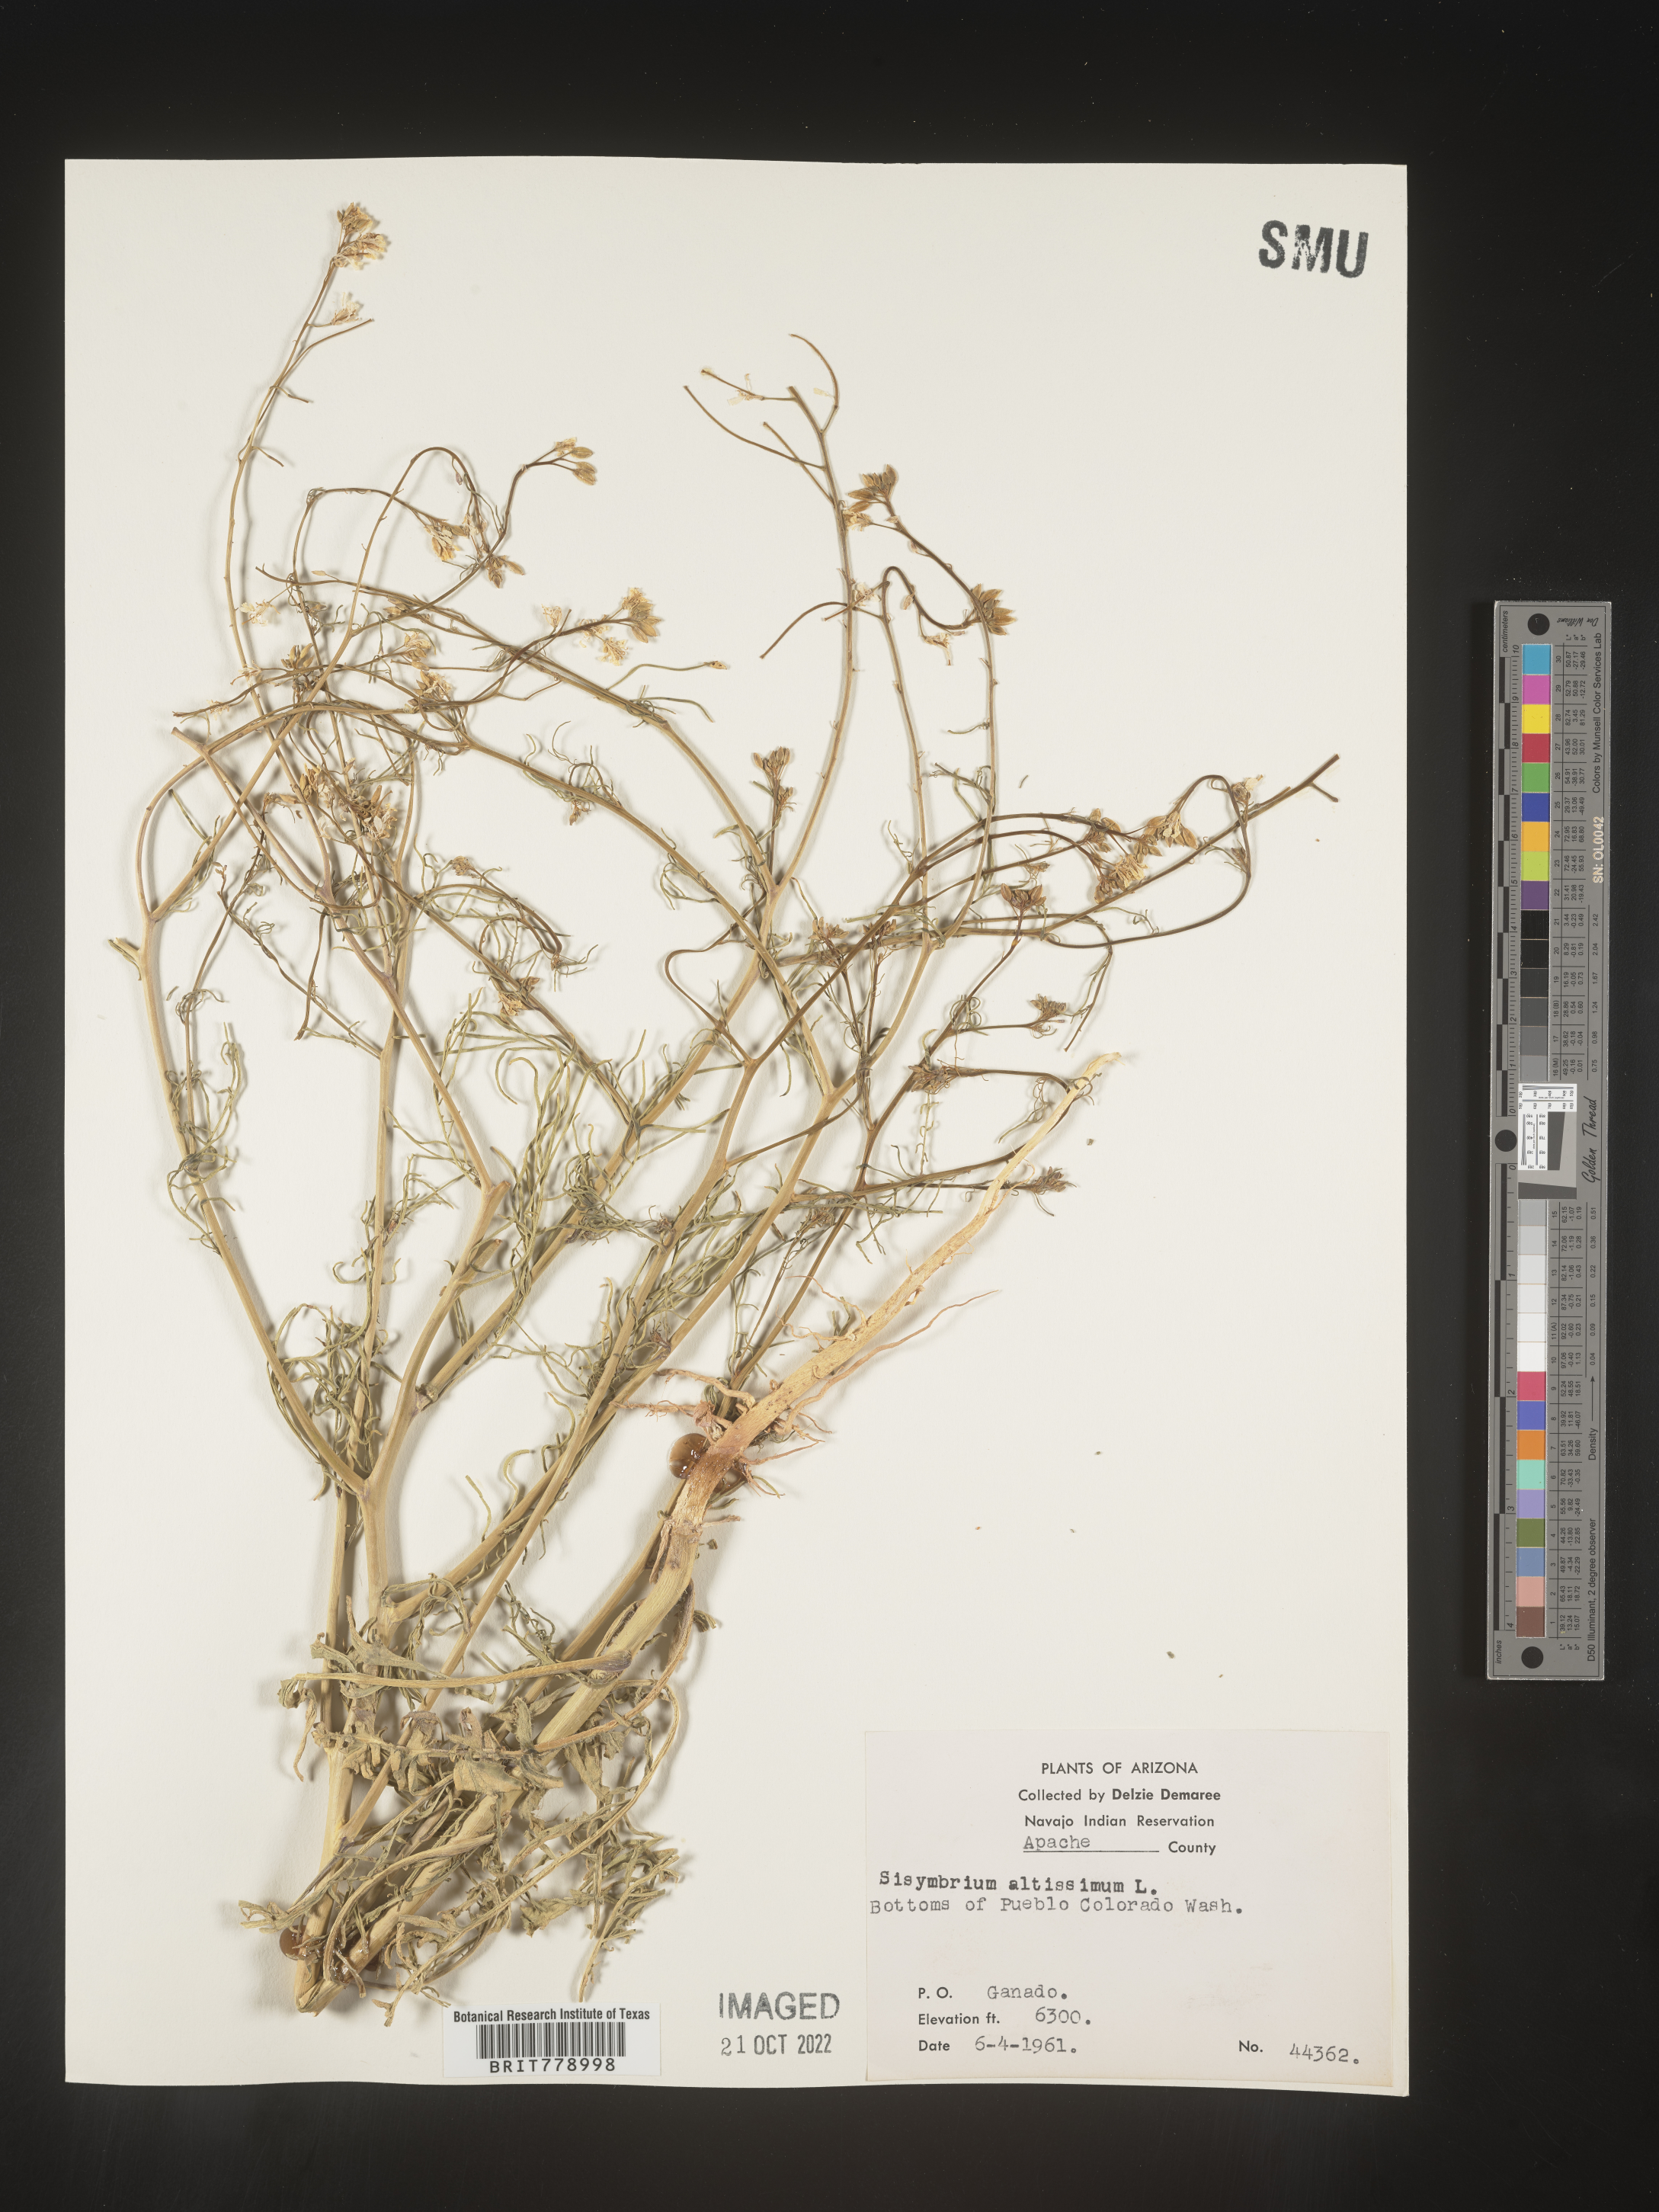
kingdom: Plantae
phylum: Tracheophyta
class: Magnoliopsida
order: Brassicales
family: Brassicaceae
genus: Sisymbrium
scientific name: Sisymbrium altissimum
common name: Tall rocket
